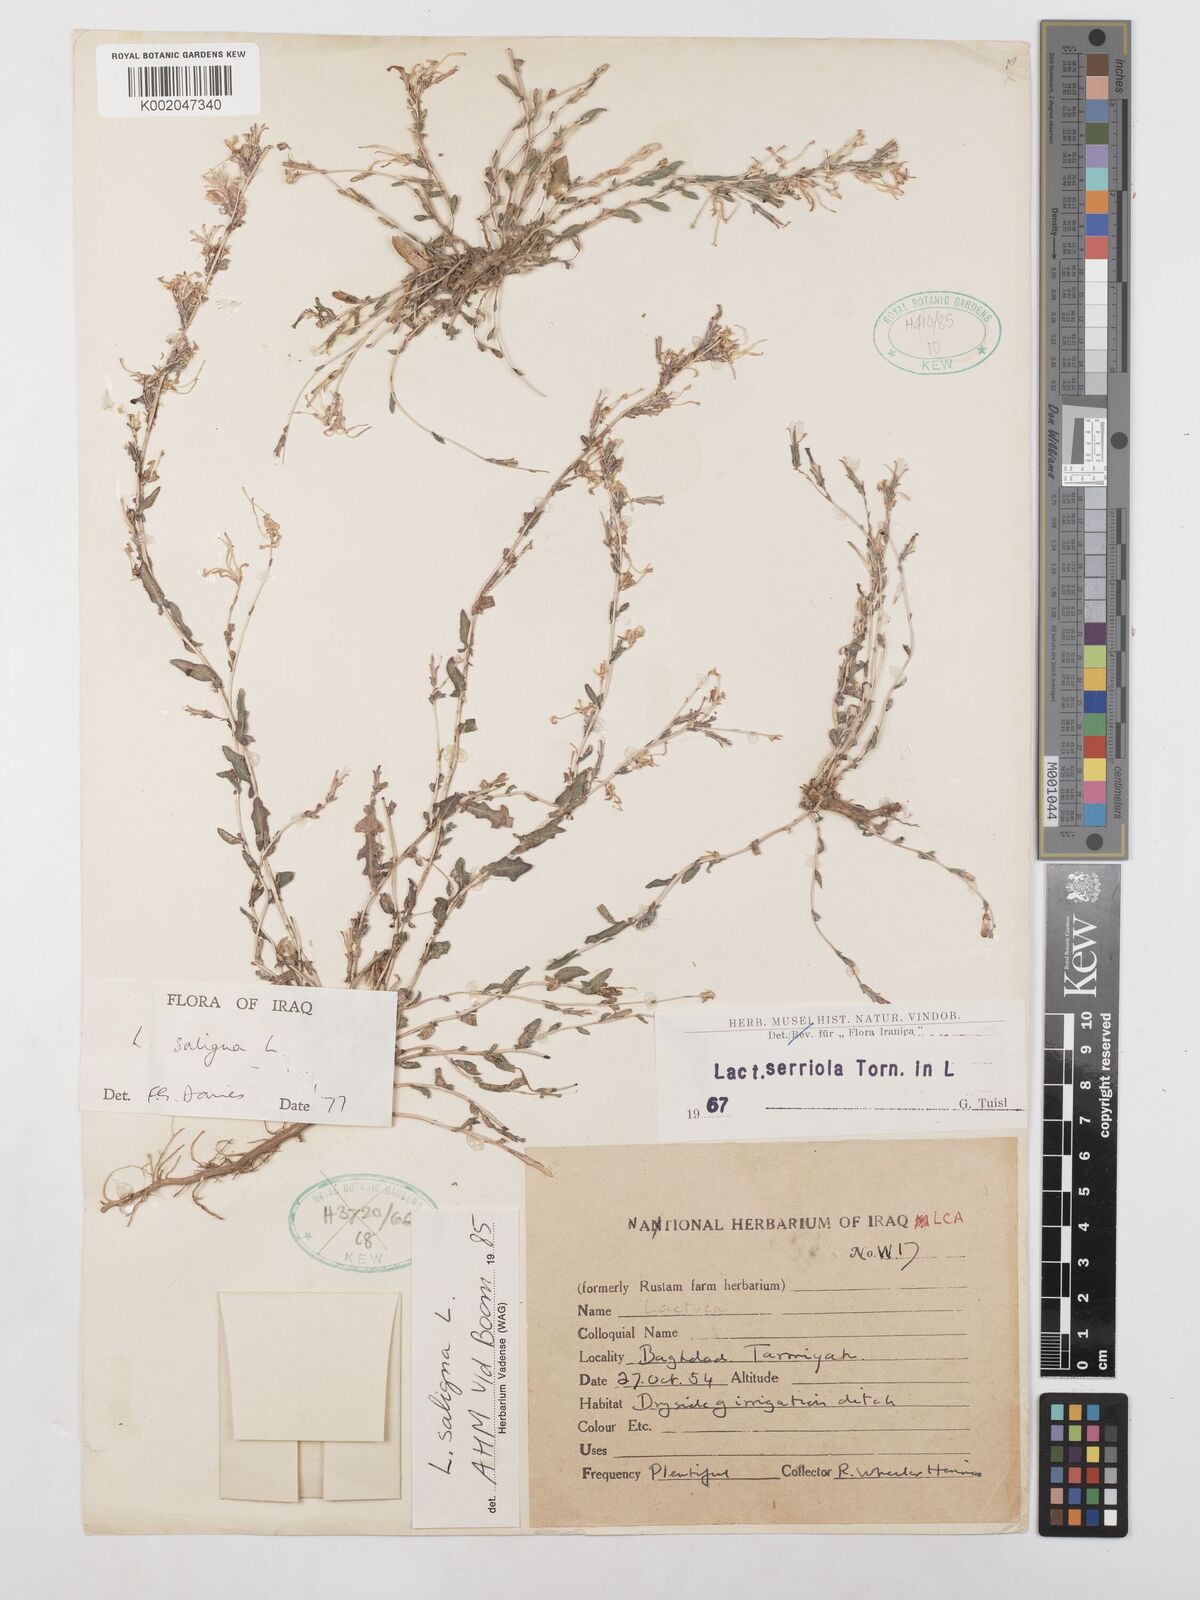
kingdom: Plantae
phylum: Tracheophyta
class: Magnoliopsida
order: Asterales
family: Asteraceae
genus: Lactuca
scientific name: Lactuca saligna
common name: Wild lettuce
